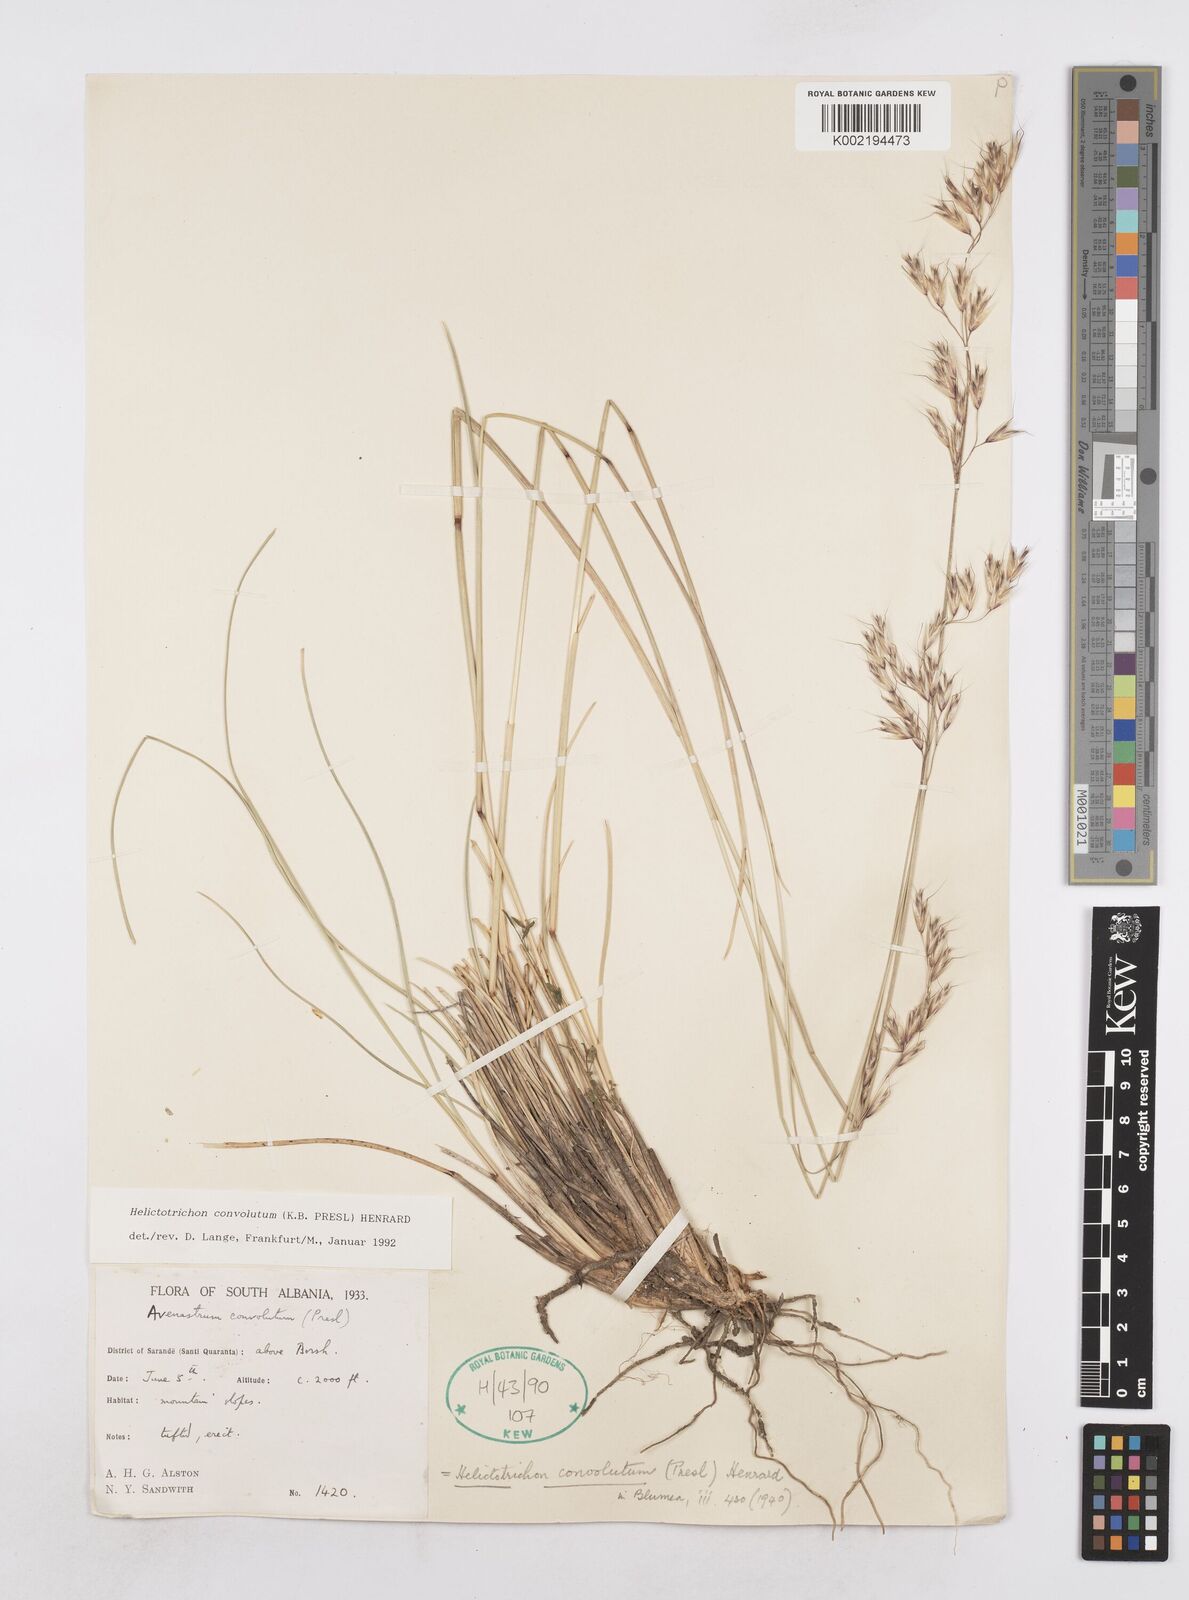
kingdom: Plantae
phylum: Tracheophyta
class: Liliopsida
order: Poales
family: Poaceae
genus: Helictotrichon
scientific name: Helictotrichon convolutum
